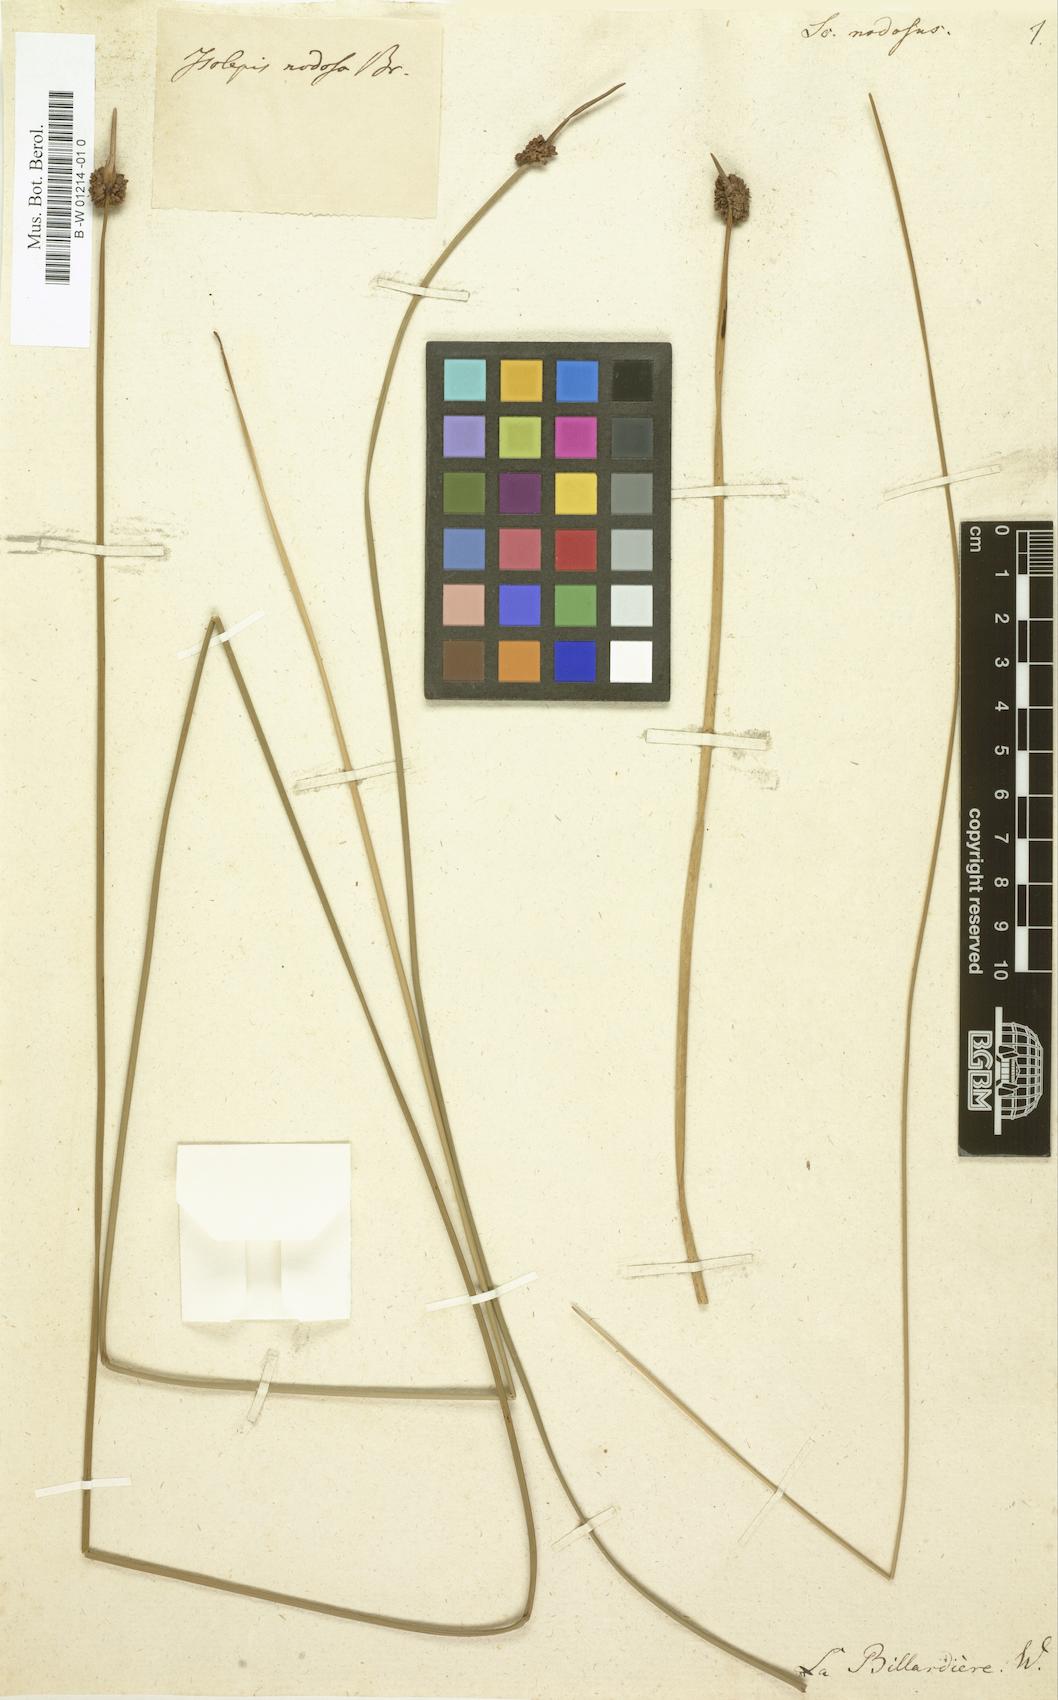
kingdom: Plantae
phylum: Tracheophyta
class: Liliopsida
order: Poales
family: Cyperaceae
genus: Ficinia
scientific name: Ficinia nodosa
